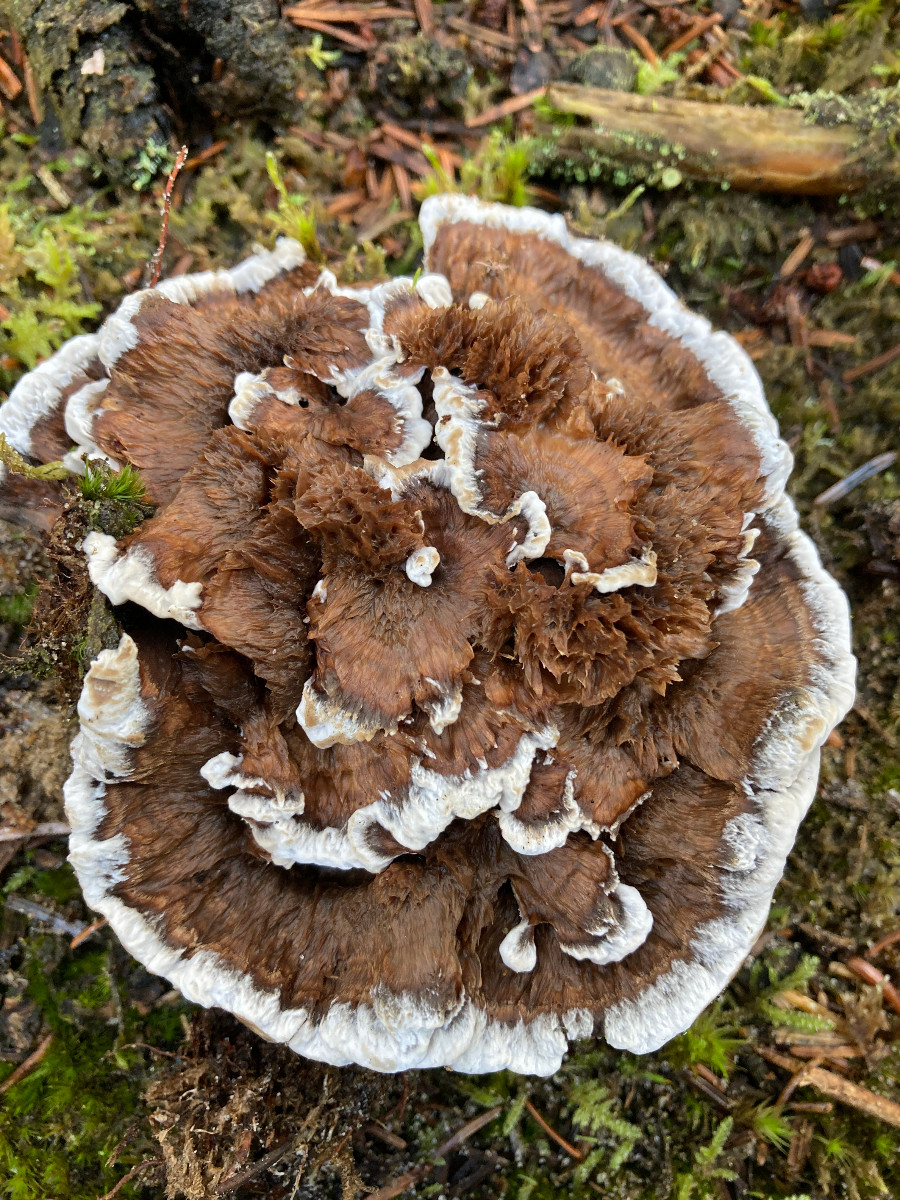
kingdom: Fungi
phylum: Basidiomycota
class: Agaricomycetes
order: Thelephorales
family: Thelephoraceae
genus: Phellodon
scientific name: Phellodon tomentosus
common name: tragtformet duftpigsvamp
